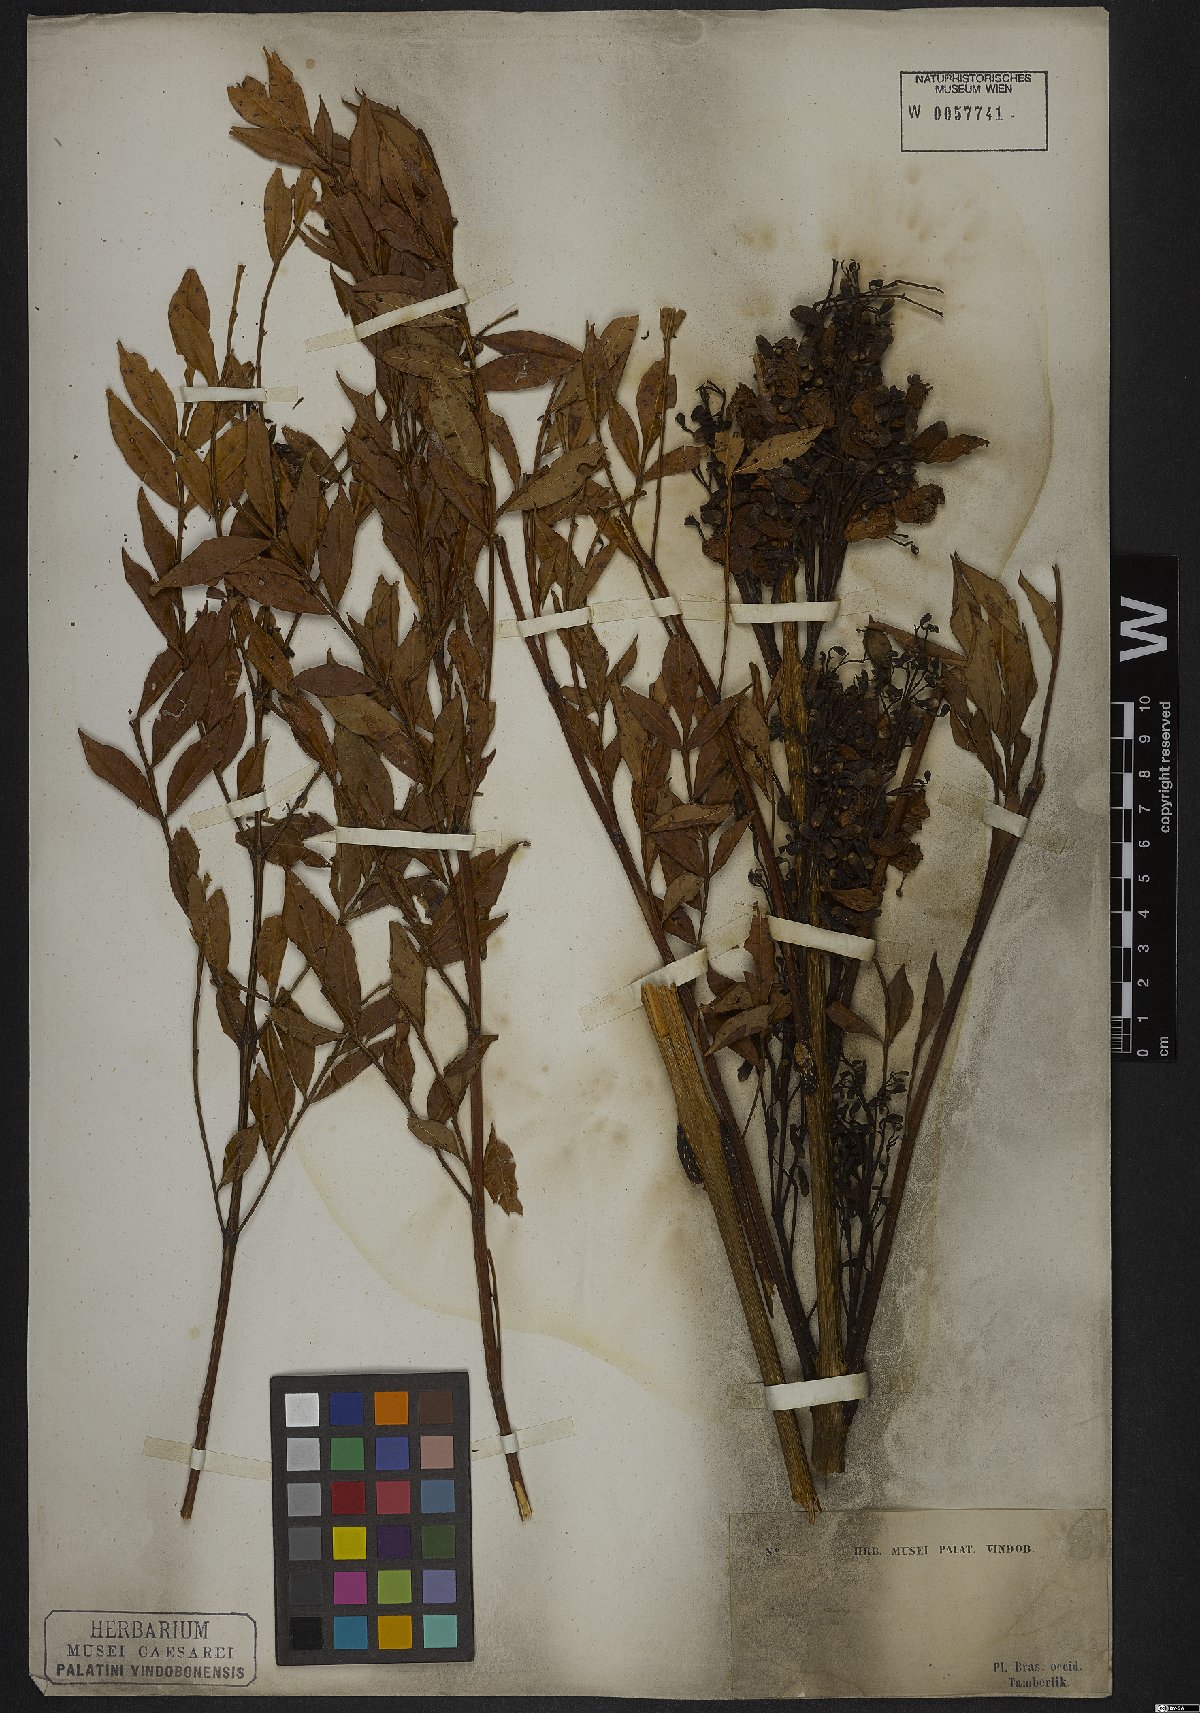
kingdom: Plantae
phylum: Tracheophyta
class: Magnoliopsida
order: Lamiales
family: Bignoniaceae
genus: Jacaranda
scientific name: Jacaranda caroba
